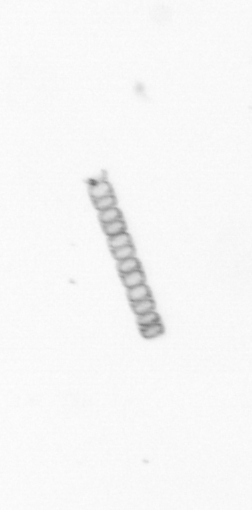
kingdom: Chromista
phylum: Ochrophyta
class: Bacillariophyceae
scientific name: Bacillariophyceae
